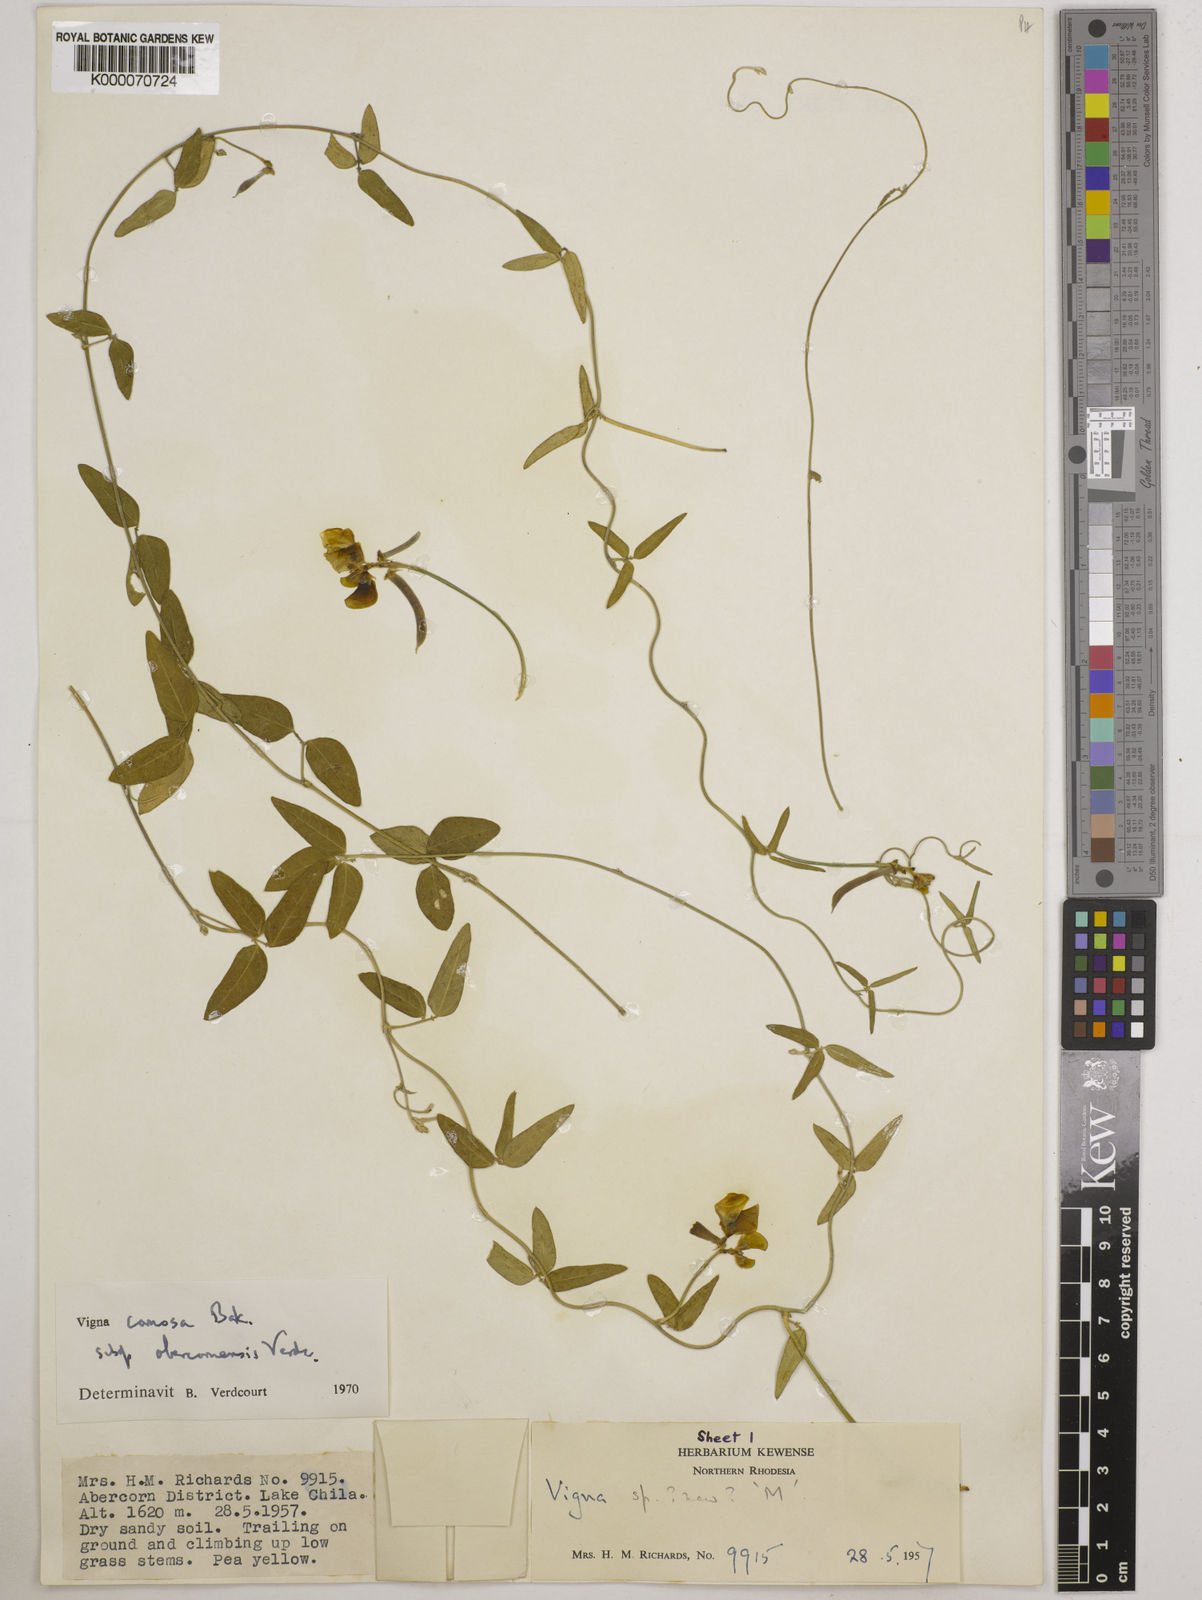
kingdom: Plantae
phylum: Tracheophyta
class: Magnoliopsida
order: Fabales
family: Fabaceae
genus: Vigna
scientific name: Vigna comosa
